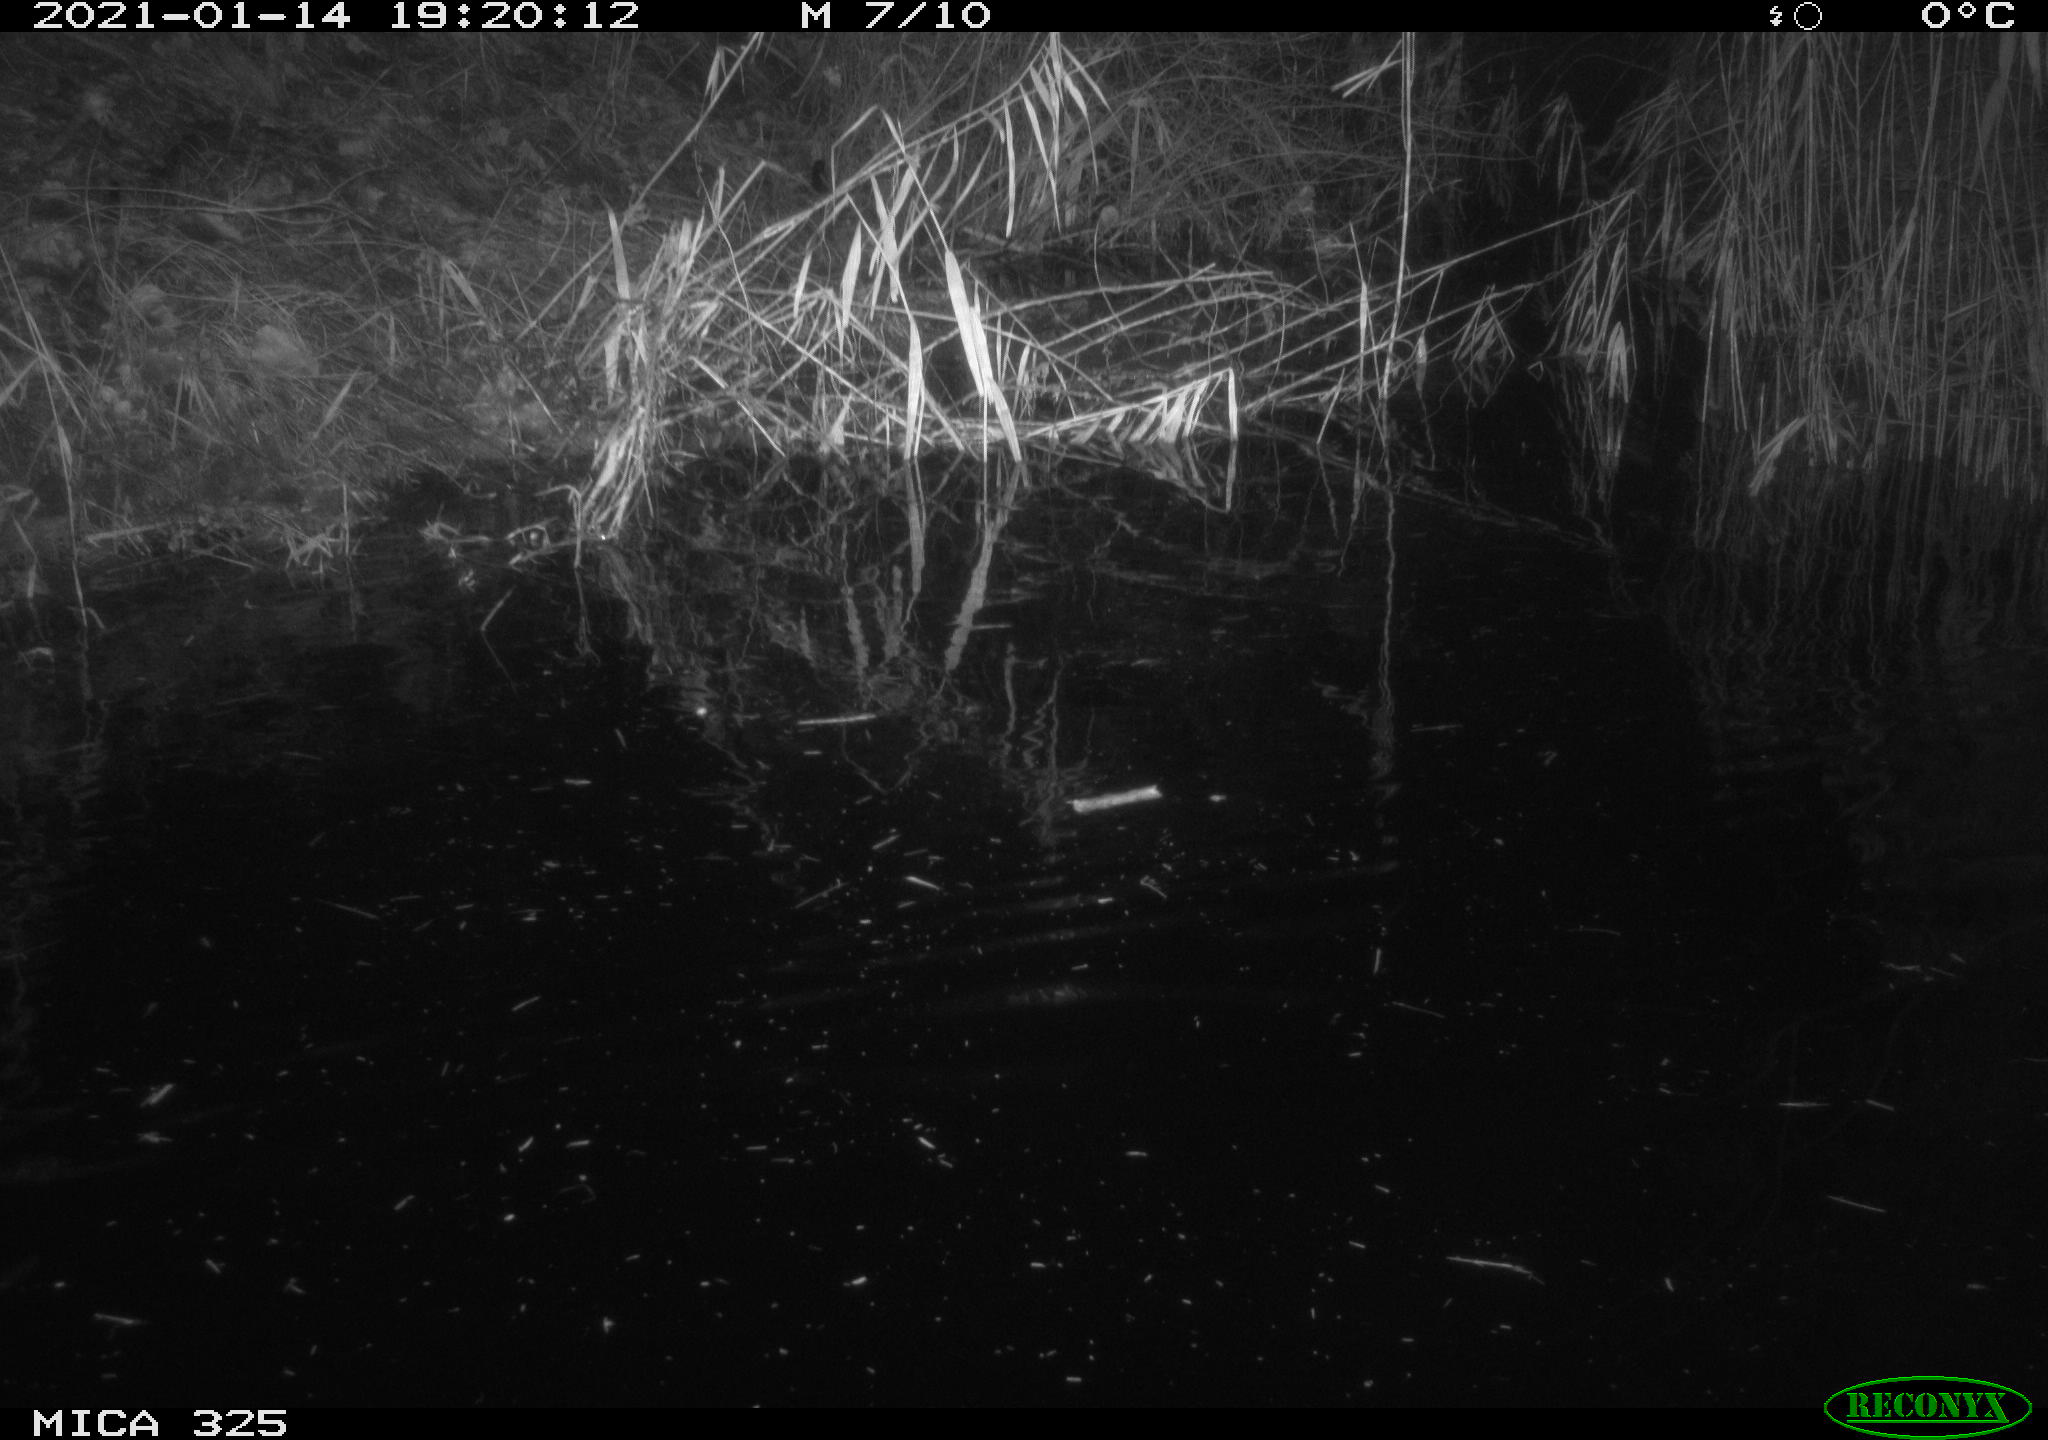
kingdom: Animalia
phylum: Chordata
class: Mammalia
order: Rodentia
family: Myocastoridae
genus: Myocastor
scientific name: Myocastor coypus
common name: Coypu
